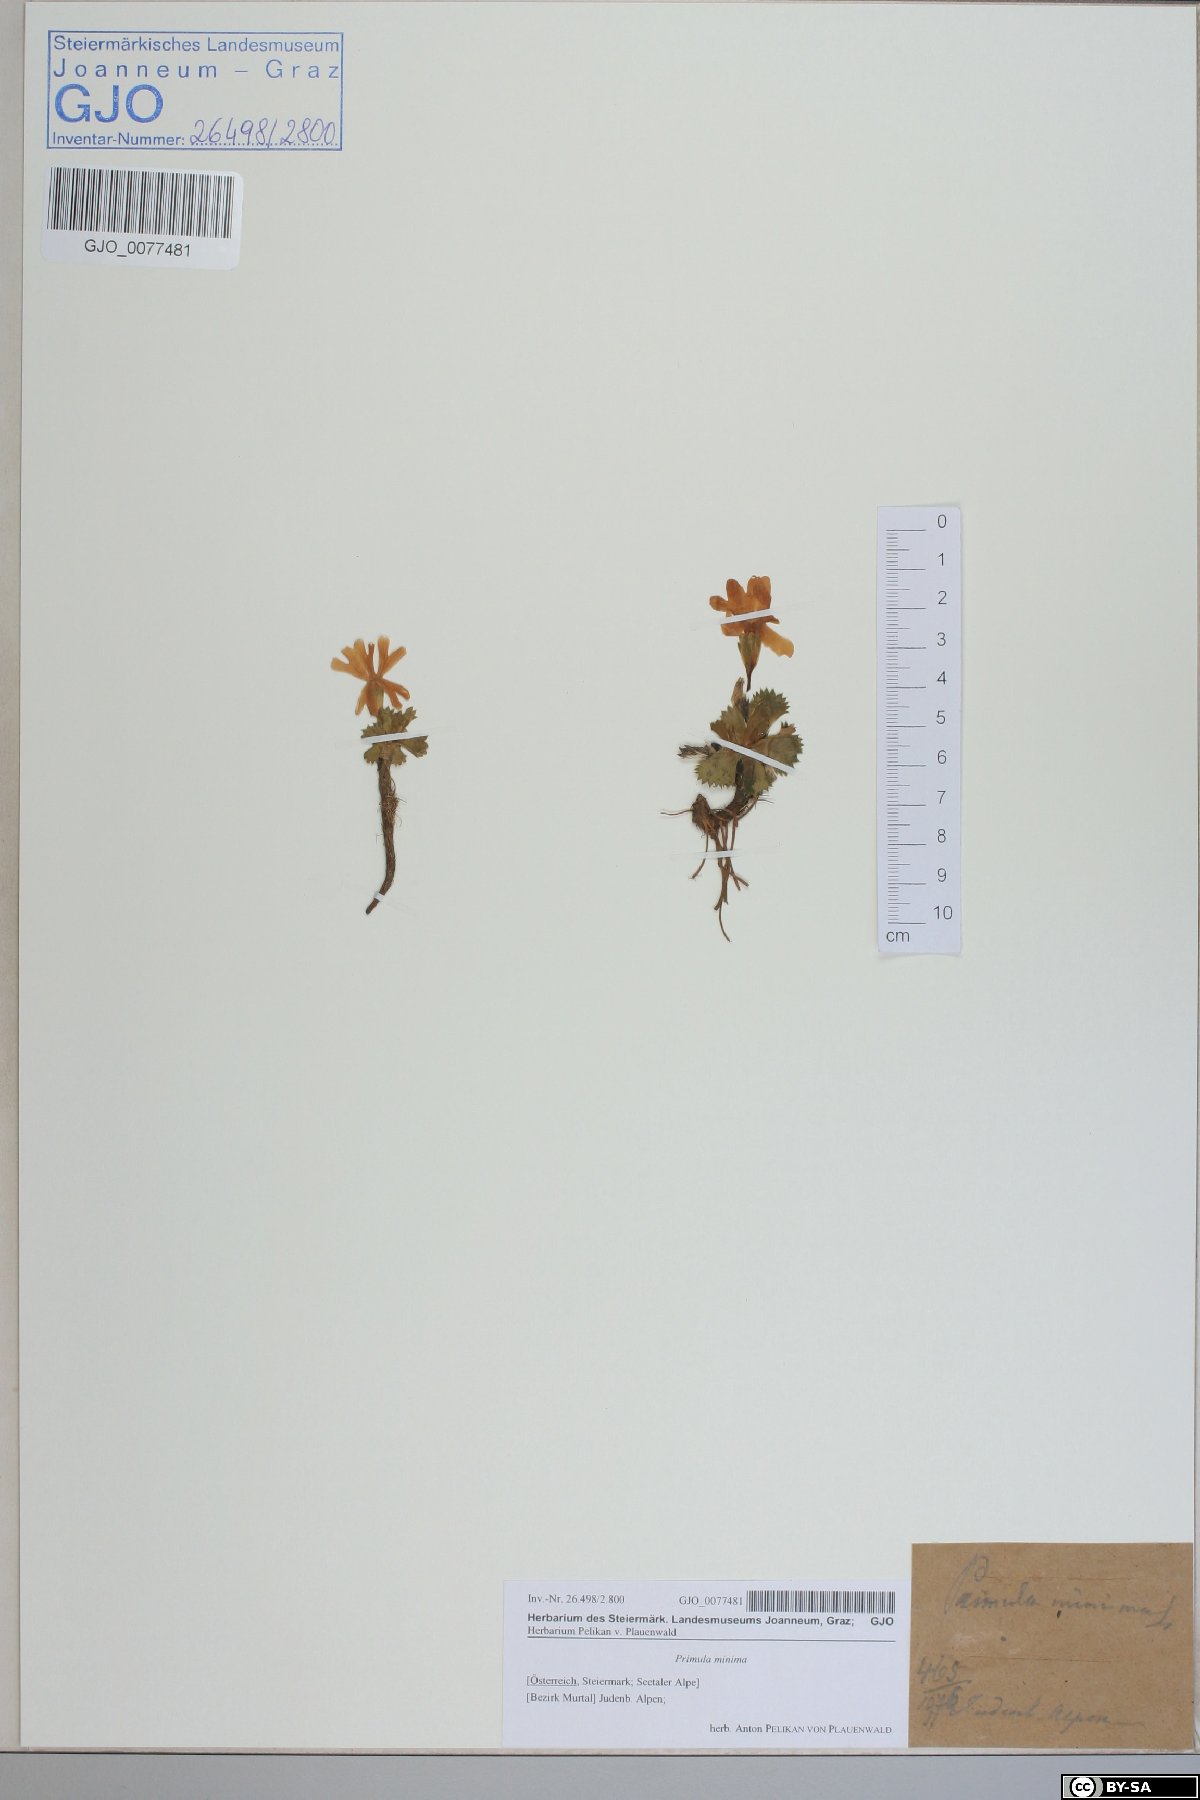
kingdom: Plantae
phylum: Tracheophyta
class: Magnoliopsida
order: Ericales
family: Primulaceae
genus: Primula
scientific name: Primula minima
